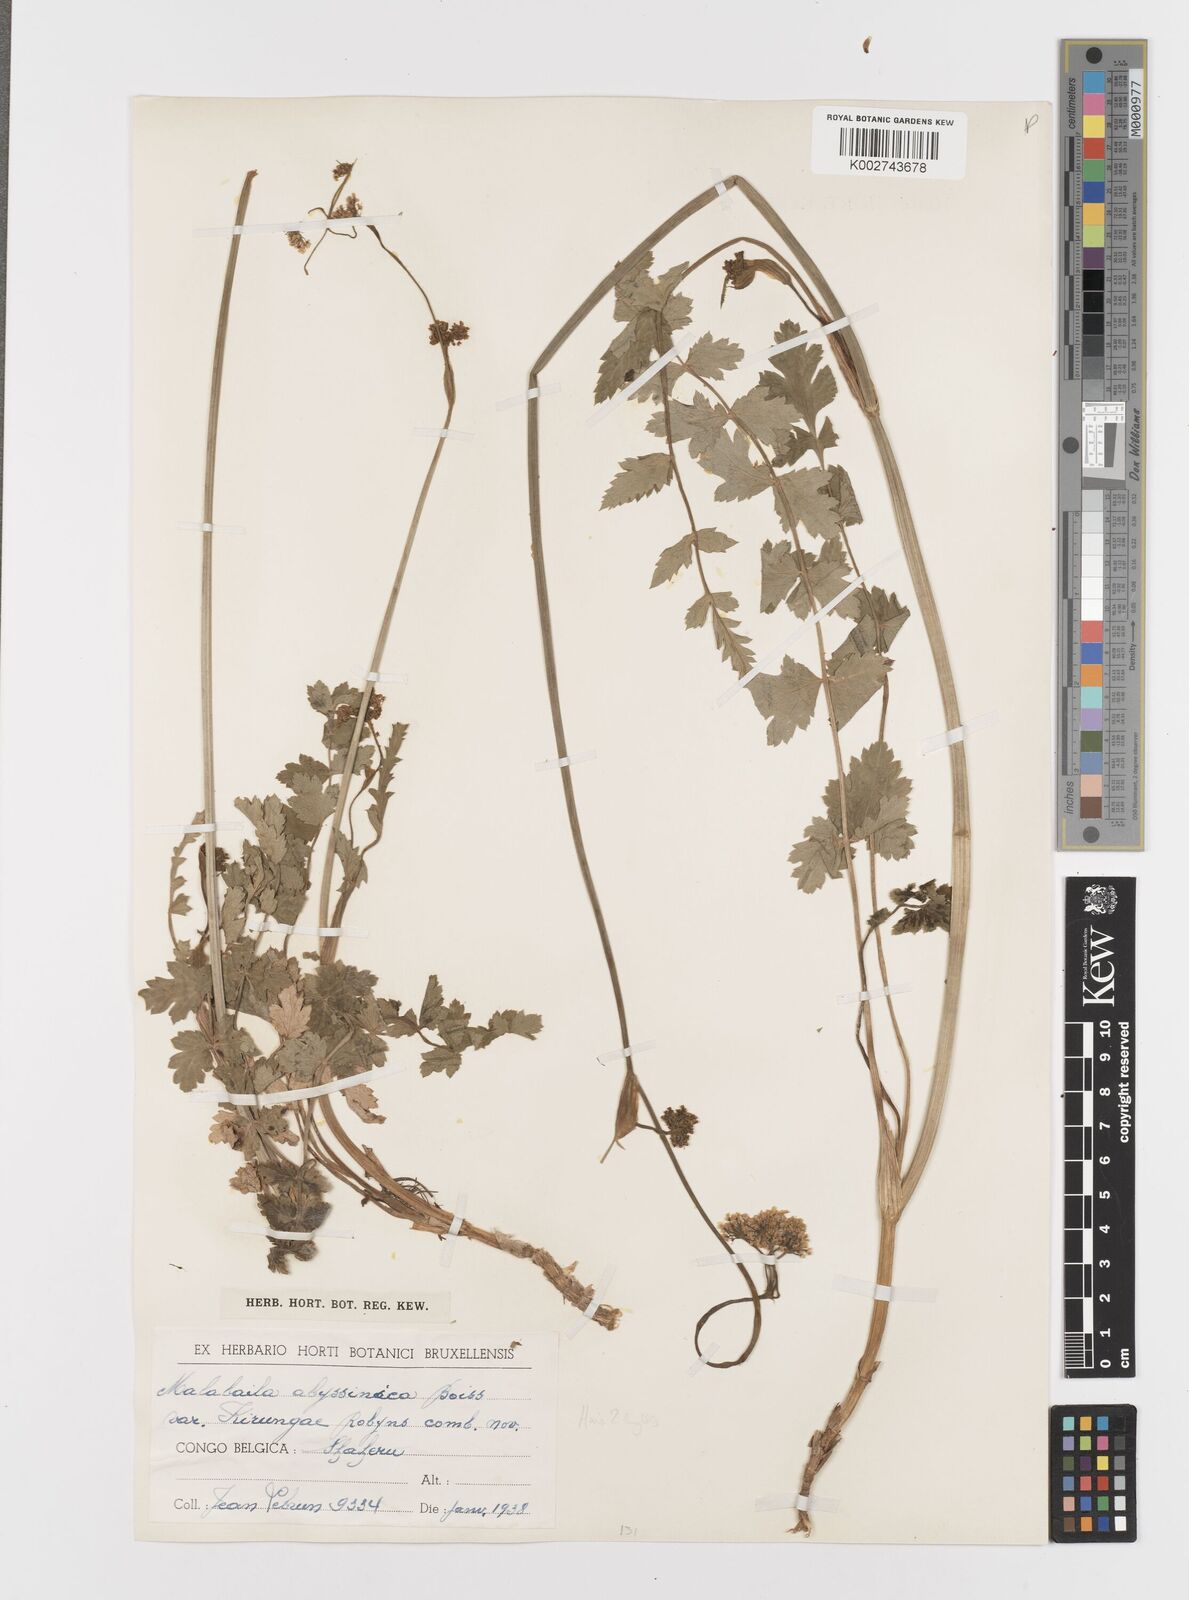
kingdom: Plantae
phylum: Tracheophyta
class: Magnoliopsida
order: Apiales
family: Apiaceae
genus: Heracleum
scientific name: Heracleum abyssinicum
